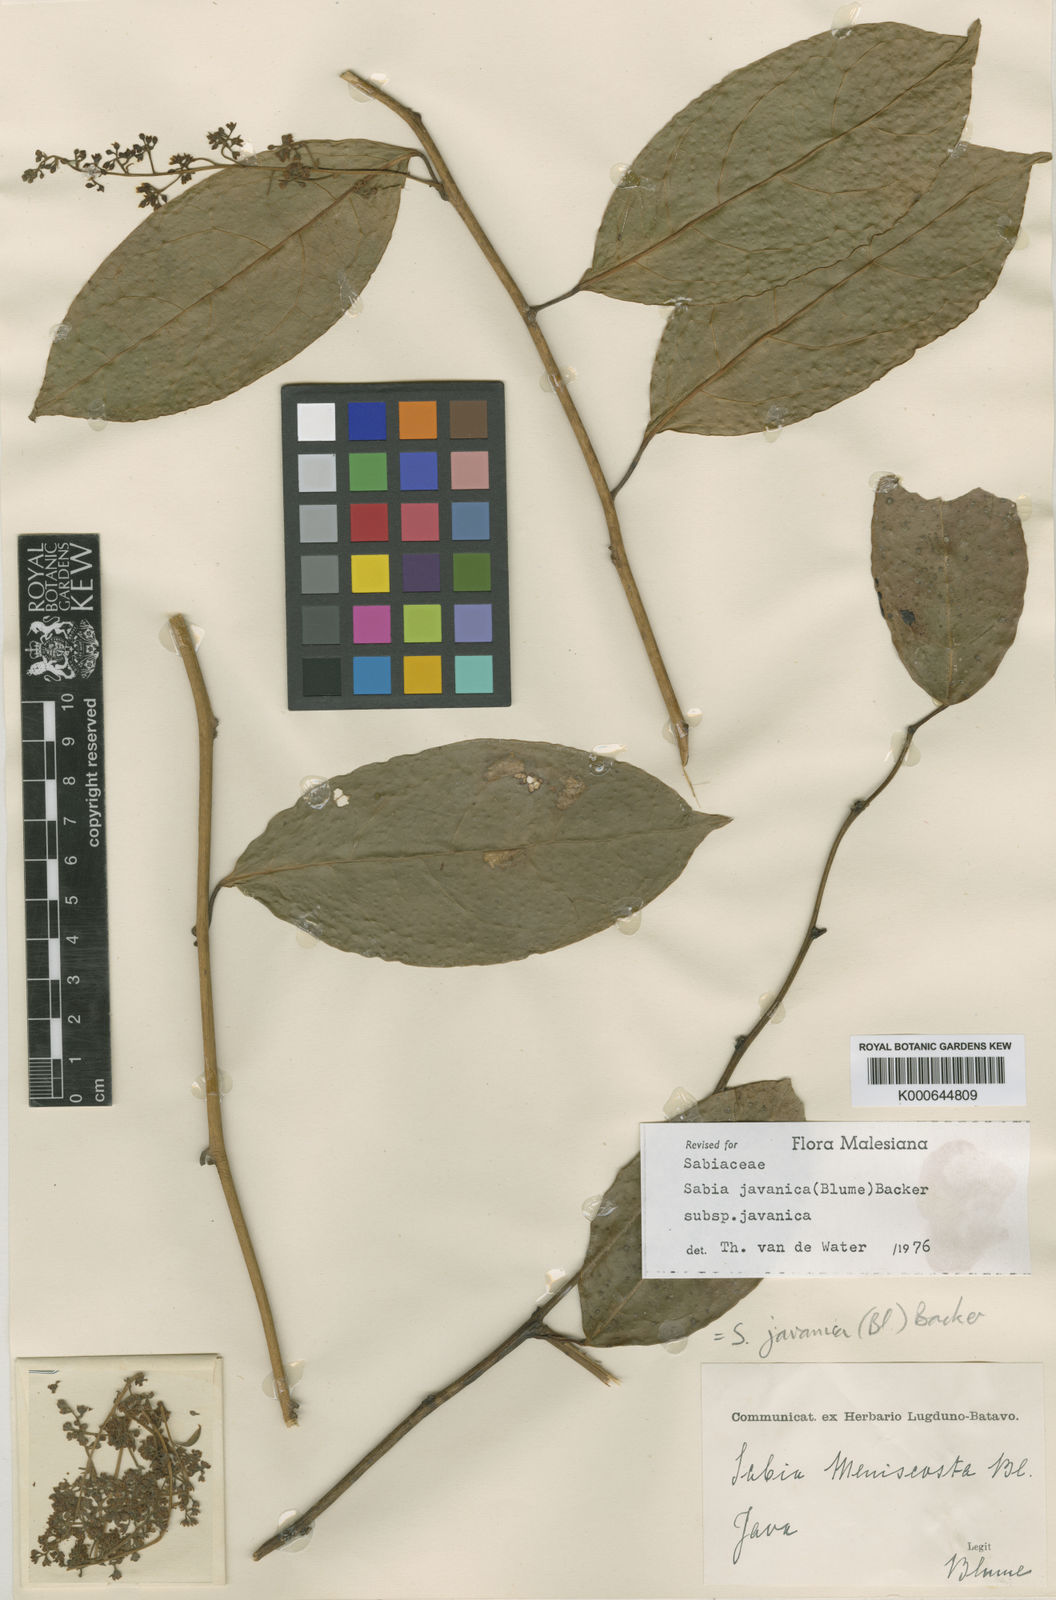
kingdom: Plantae
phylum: Tracheophyta
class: Magnoliopsida
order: Proteales
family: Sabiaceae
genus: Sabia
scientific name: Sabia javanica
